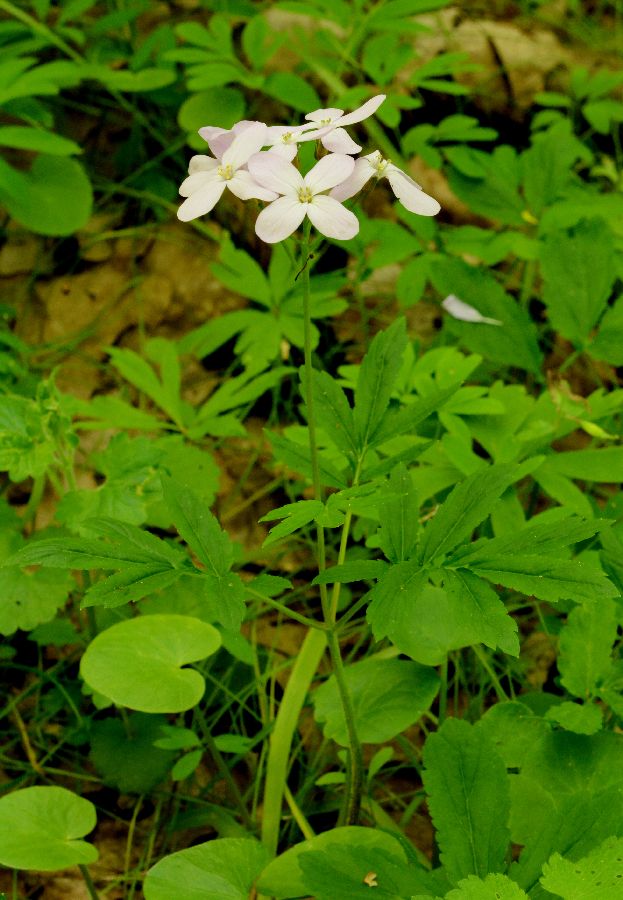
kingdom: Plantae
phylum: Tracheophyta
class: Magnoliopsida
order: Brassicales
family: Brassicaceae
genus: Cardamine
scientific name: Cardamine quinquefolia
